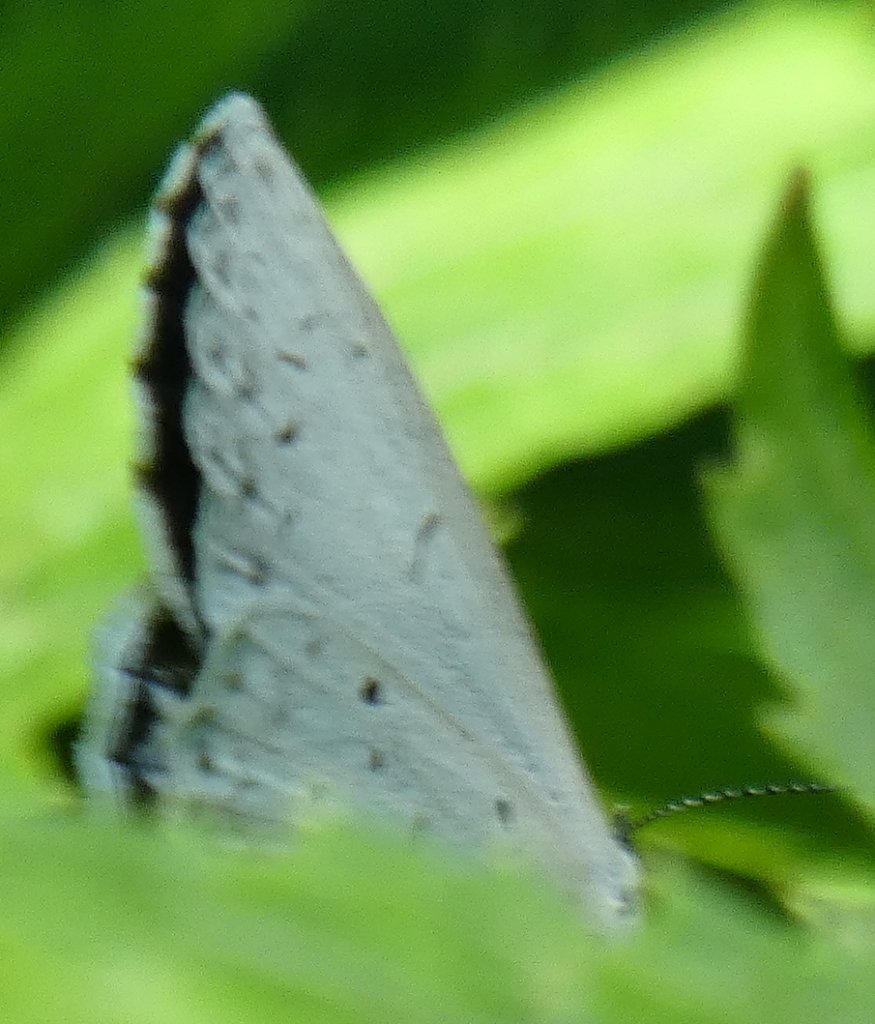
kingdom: Animalia
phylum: Arthropoda
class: Insecta
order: Lepidoptera
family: Lycaenidae
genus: Celastrina
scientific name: Celastrina ladon
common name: Spring Azure
